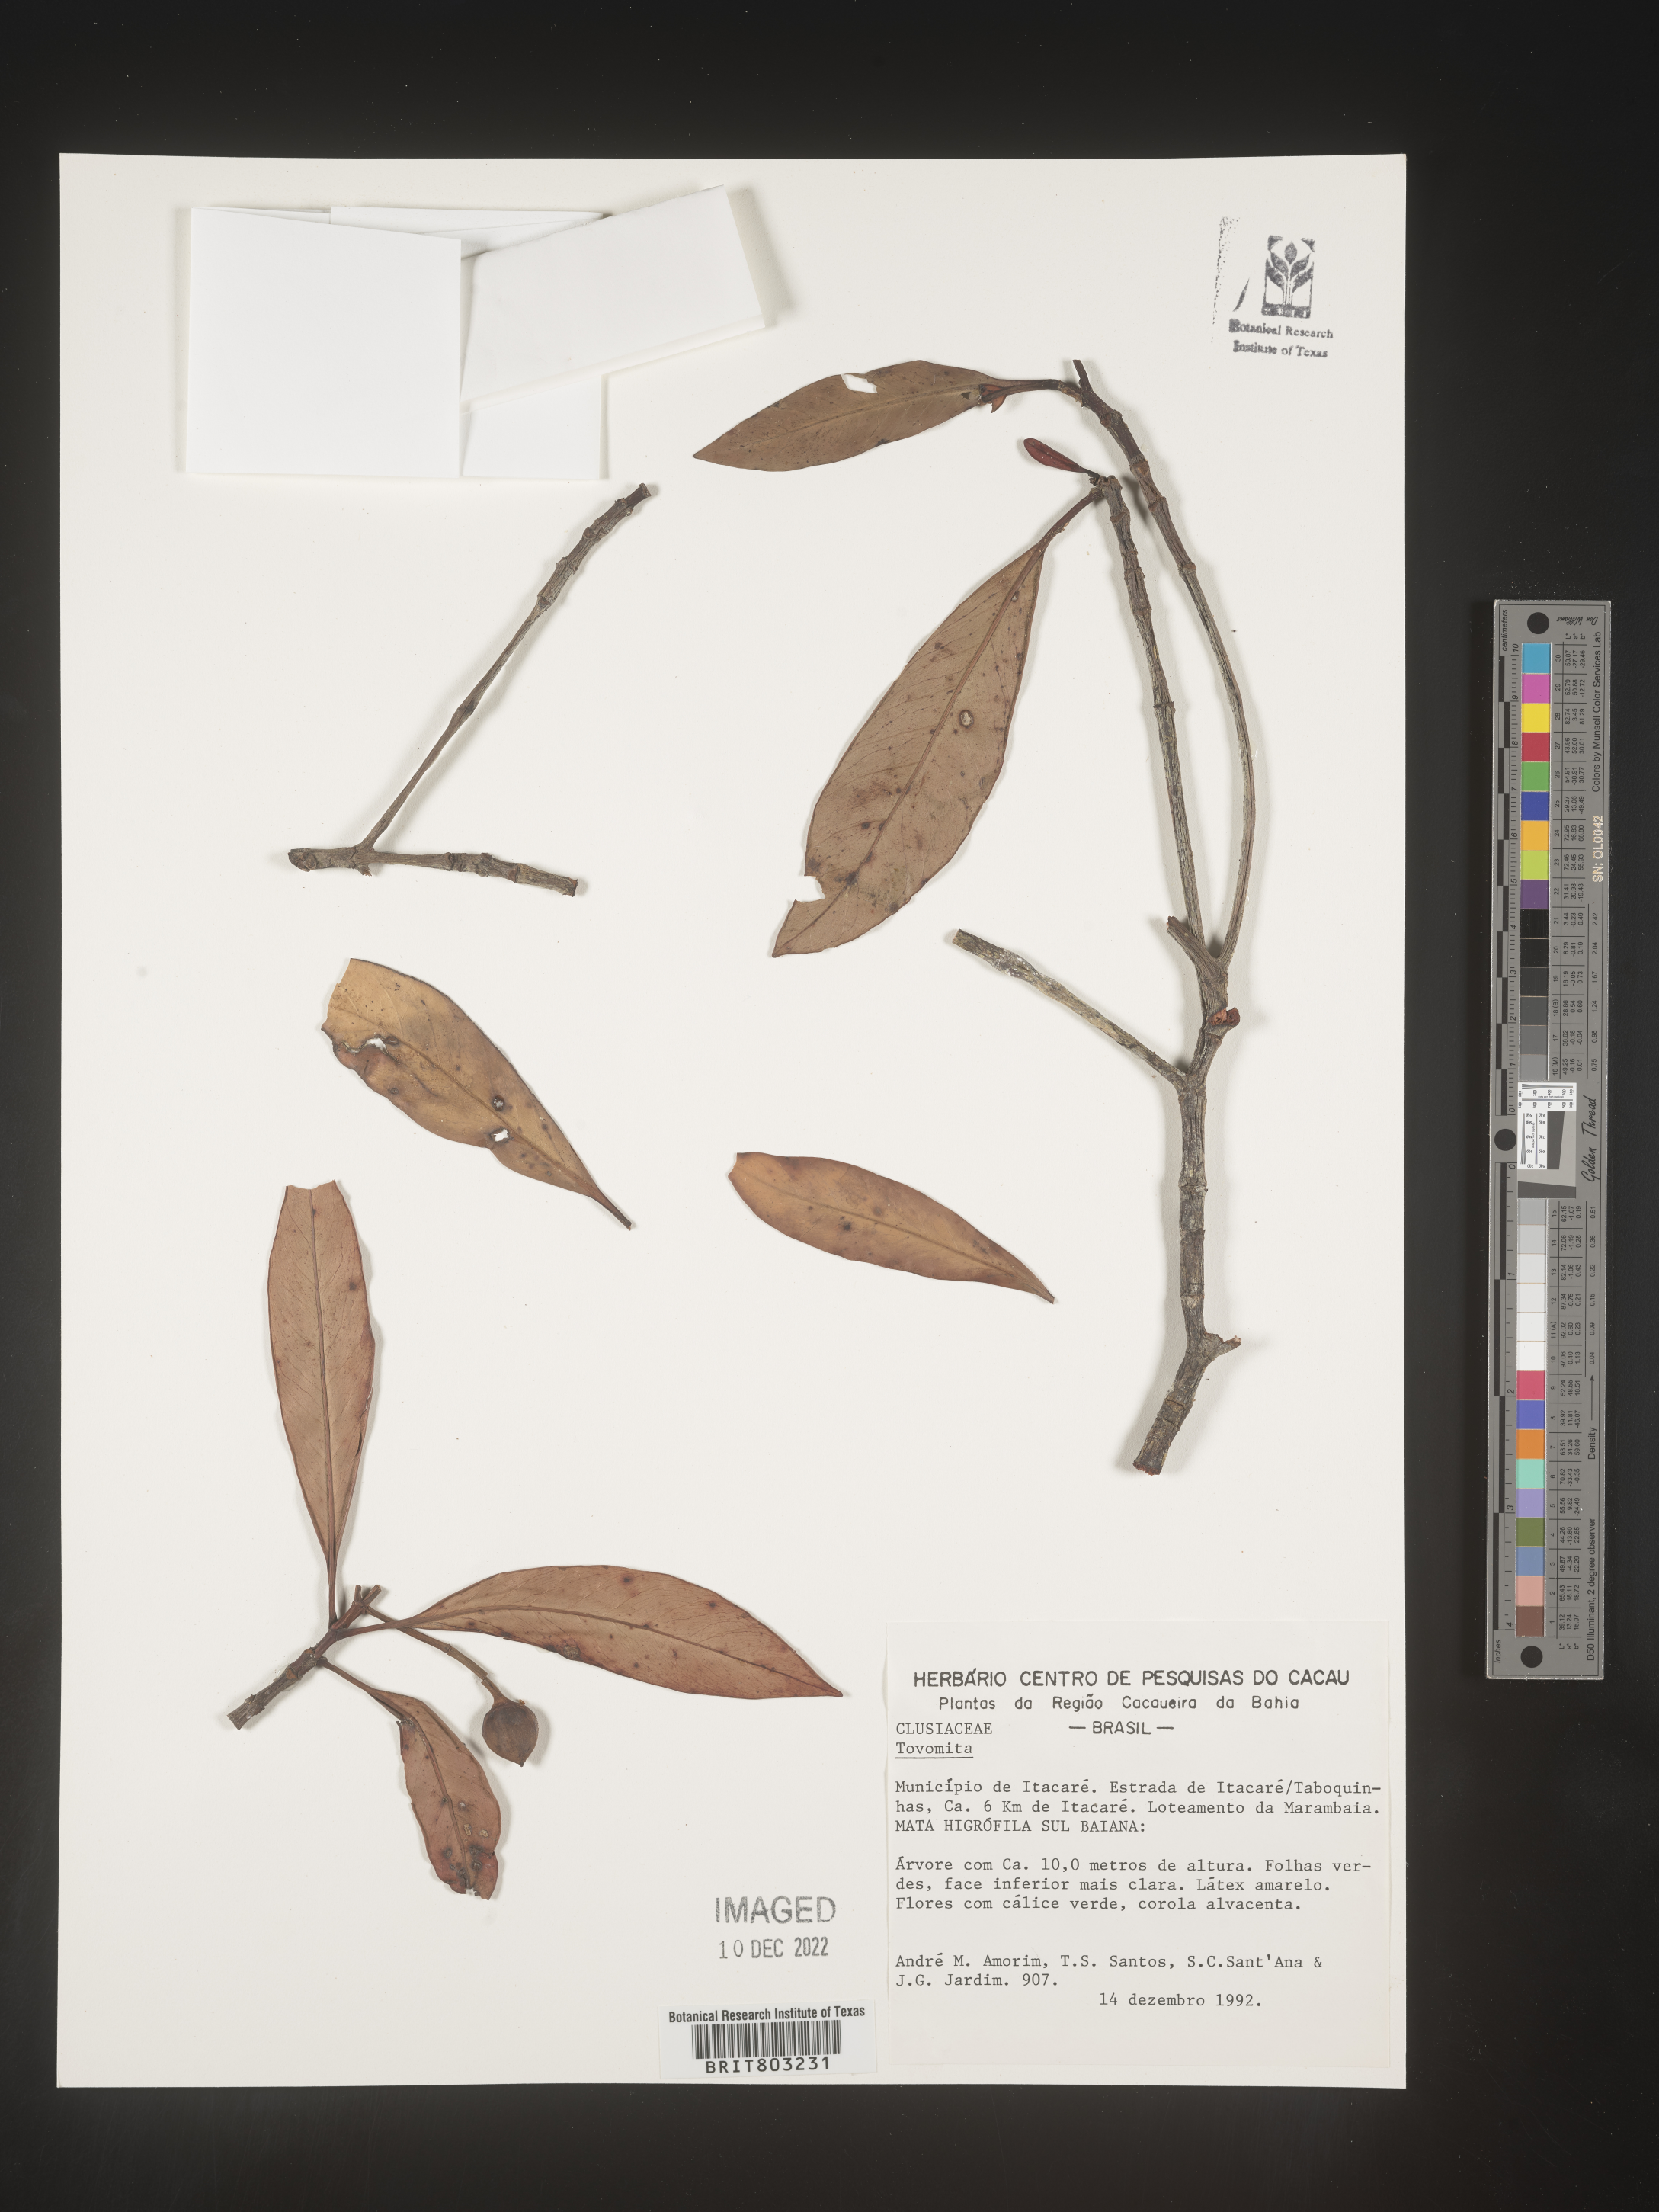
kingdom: Plantae
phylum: Tracheophyta
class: Magnoliopsida
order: Malpighiales
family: Clusiaceae
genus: Tovomita
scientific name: Tovomita
